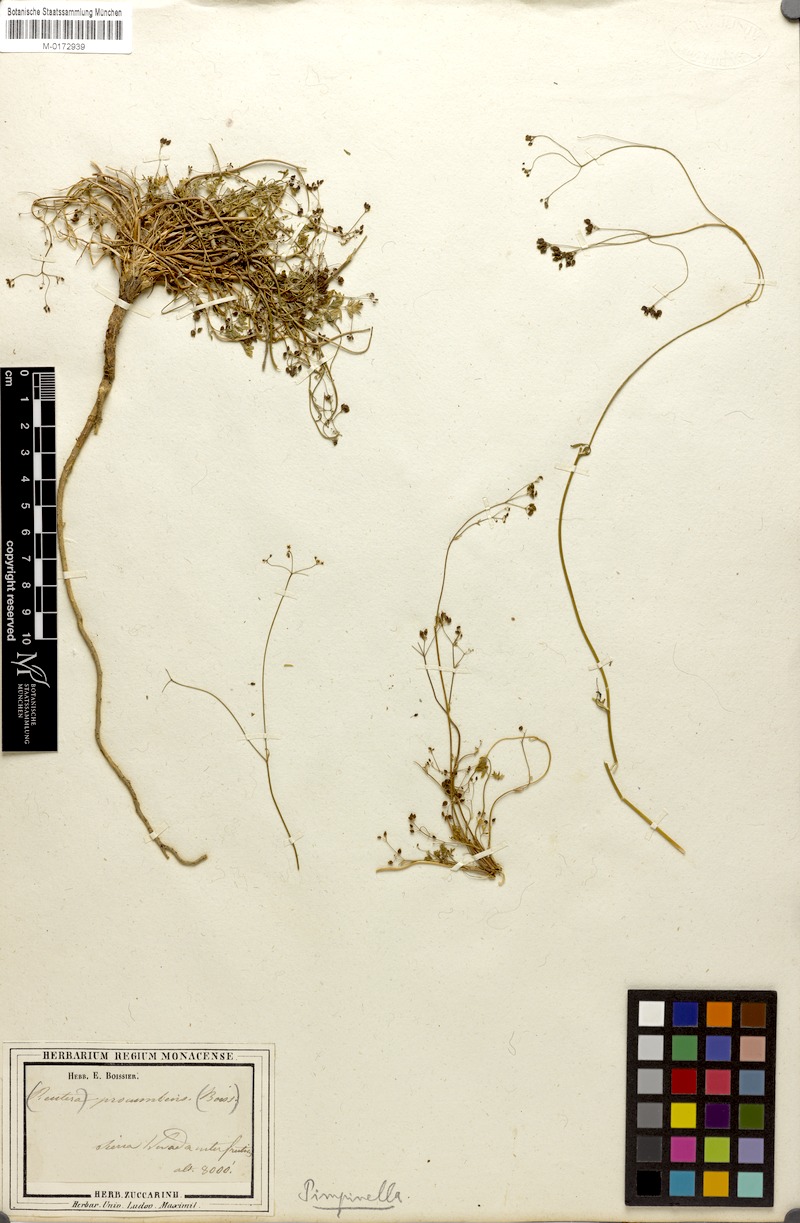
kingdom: Plantae
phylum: Tracheophyta
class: Magnoliopsida
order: Apiales
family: Apiaceae
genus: Pimpinella
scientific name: Pimpinella procumbens
